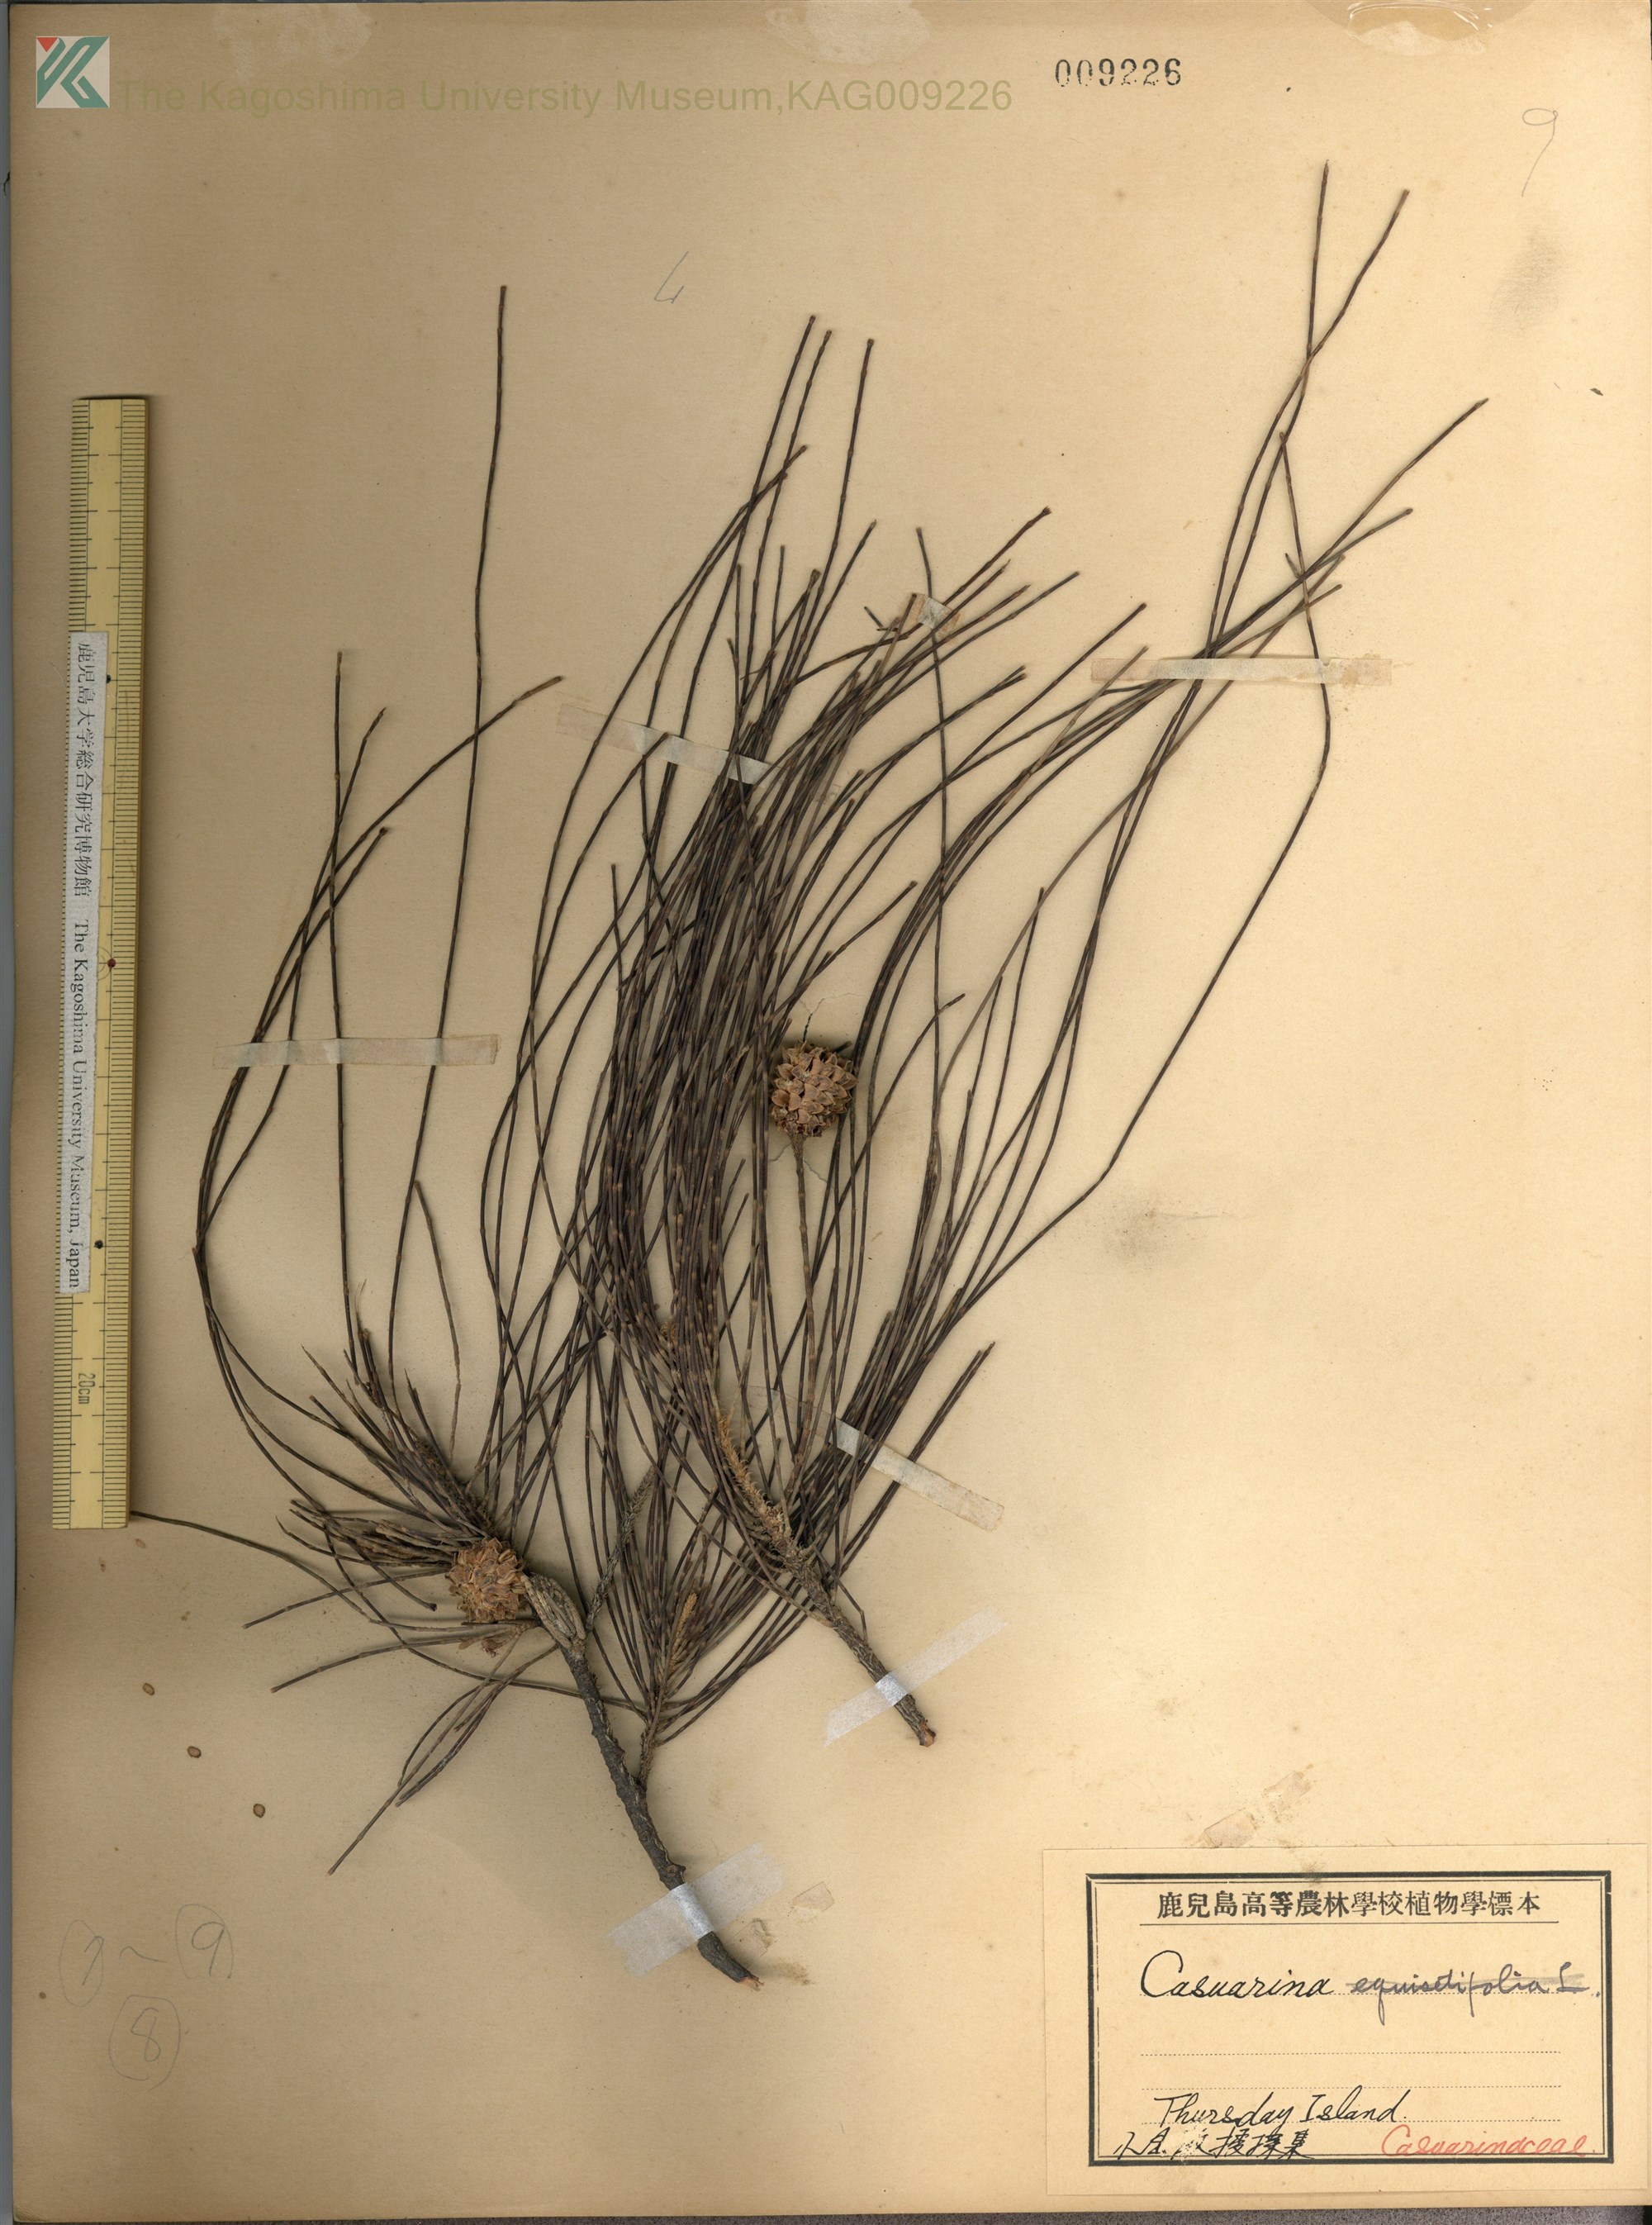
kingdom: Plantae
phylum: Tracheophyta
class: Magnoliopsida
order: Fagales
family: Casuarinaceae
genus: Casuarina
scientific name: Casuarina
